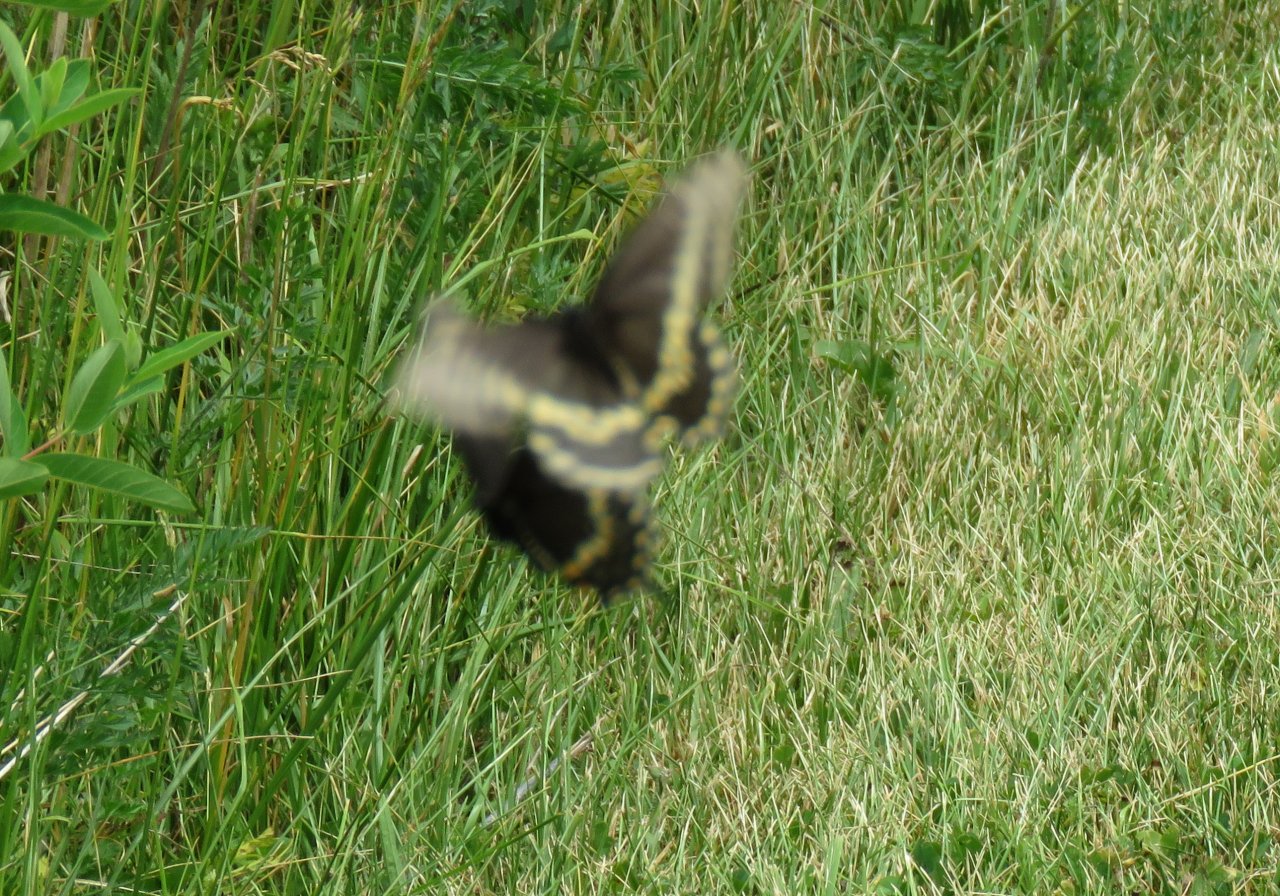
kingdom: Animalia
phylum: Arthropoda
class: Insecta
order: Lepidoptera
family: Papilionidae
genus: Papilio
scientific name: Papilio polyxenes
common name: Black Swallowtail
